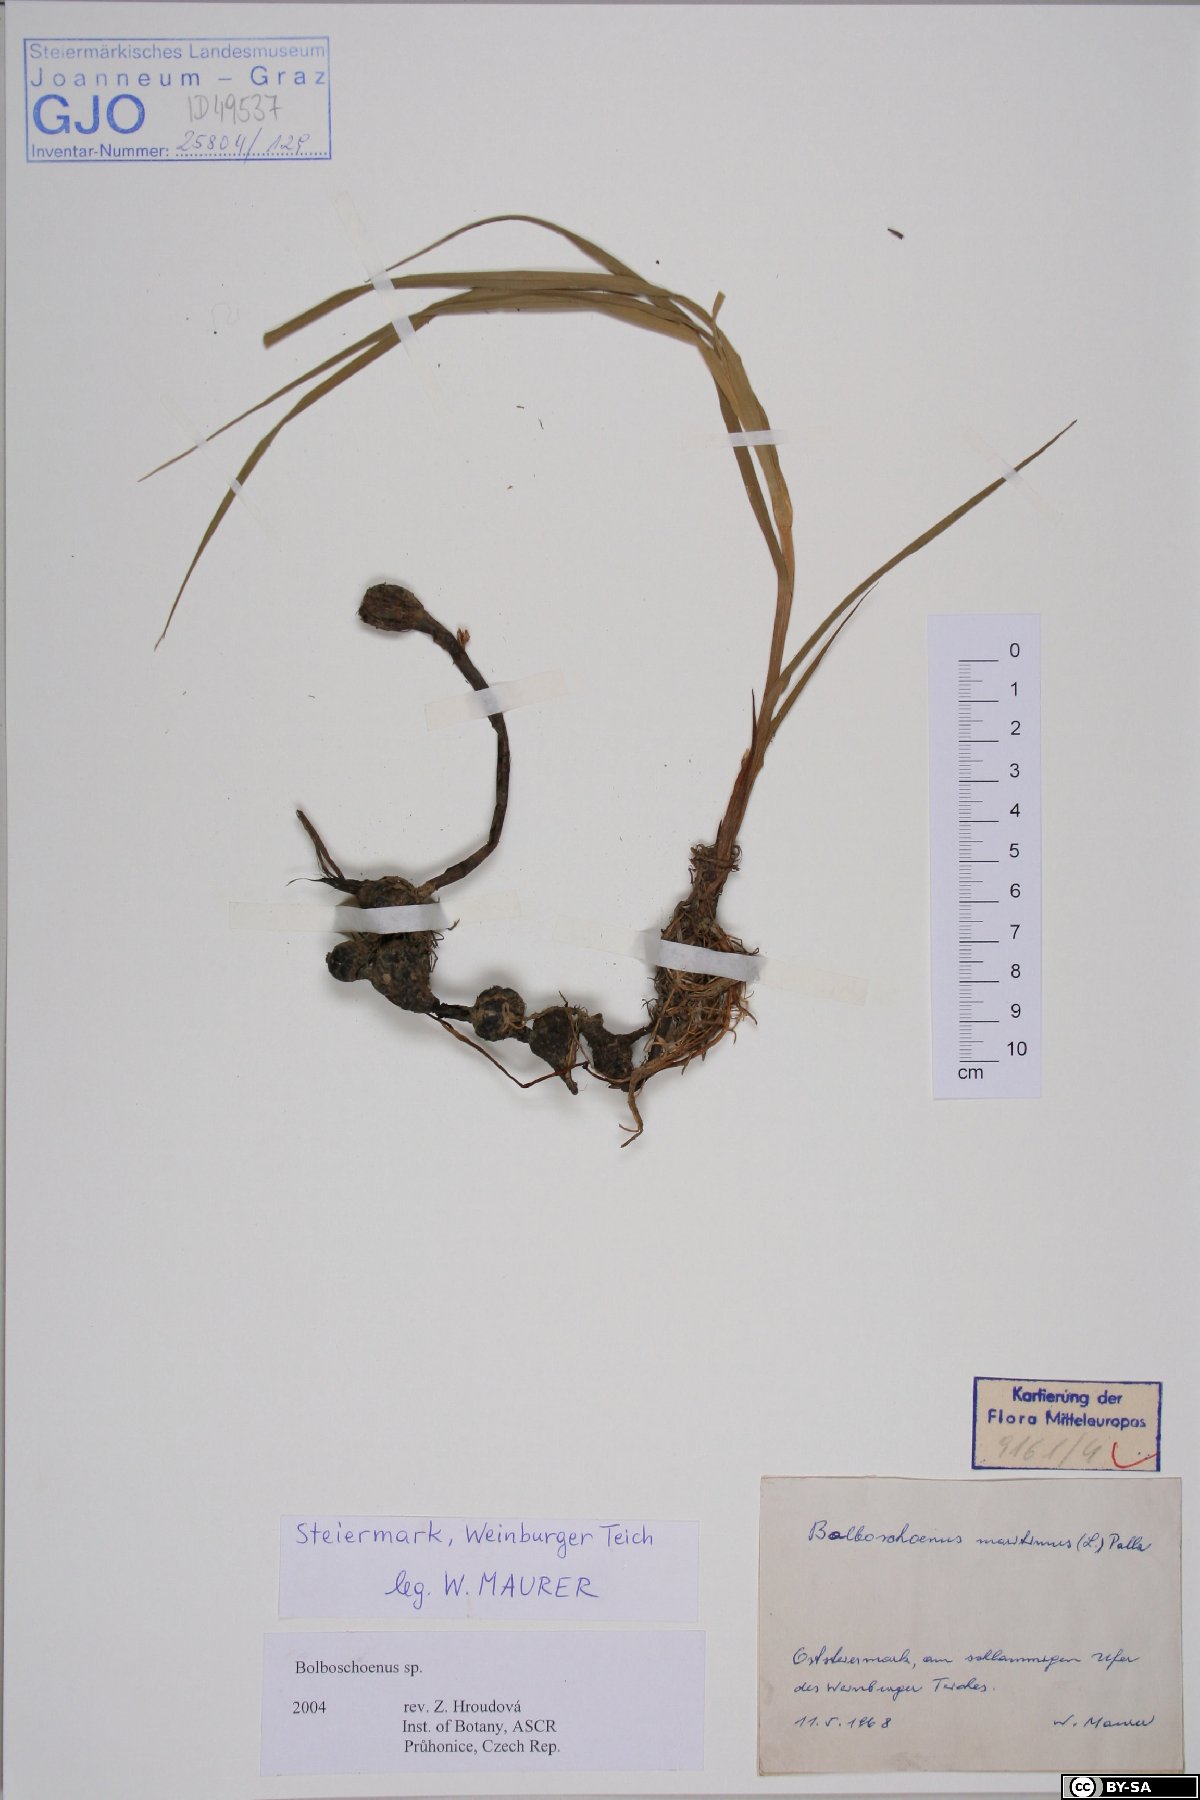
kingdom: Plantae
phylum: Tracheophyta
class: Liliopsida
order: Poales
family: Cyperaceae
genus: Bolboschoenus
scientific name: Bolboschoenus
